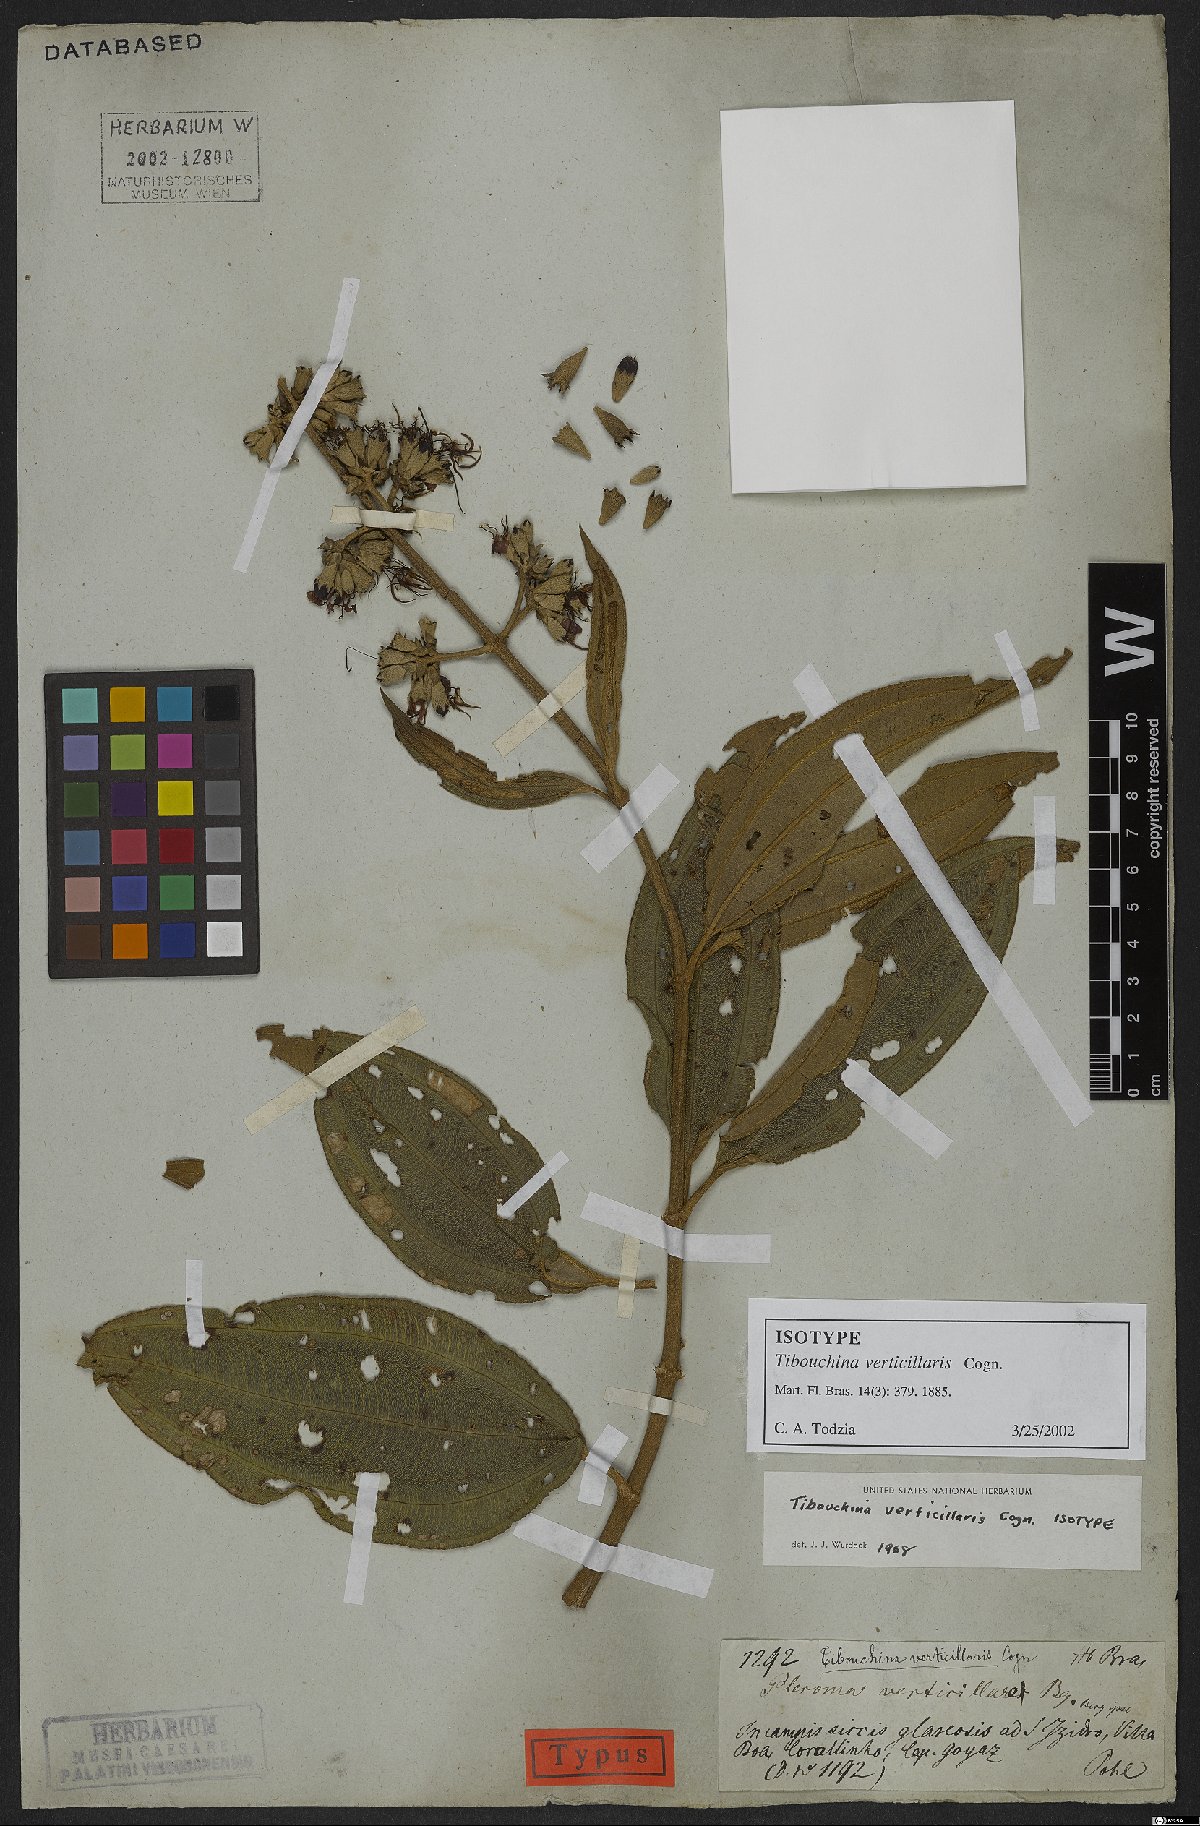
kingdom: Plantae
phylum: Tracheophyta
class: Magnoliopsida
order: Myrtales
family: Melastomataceae
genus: Tibouchina
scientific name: Tibouchina verticillaris
